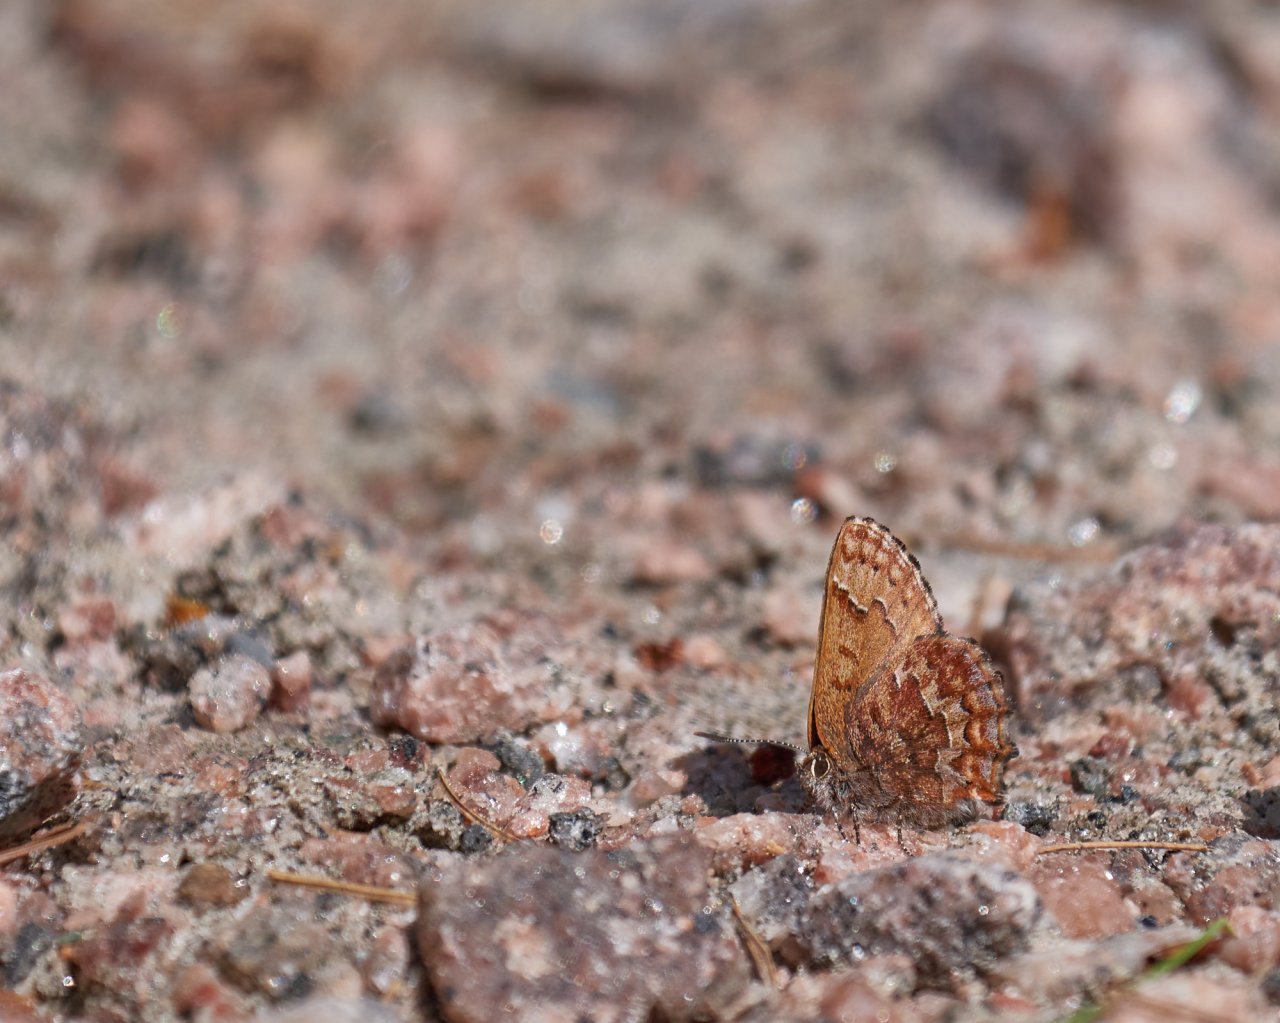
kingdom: Animalia
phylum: Arthropoda
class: Insecta
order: Lepidoptera
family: Lycaenidae
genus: Incisalia
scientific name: Incisalia niphon
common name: Eastern Pine Elfin
